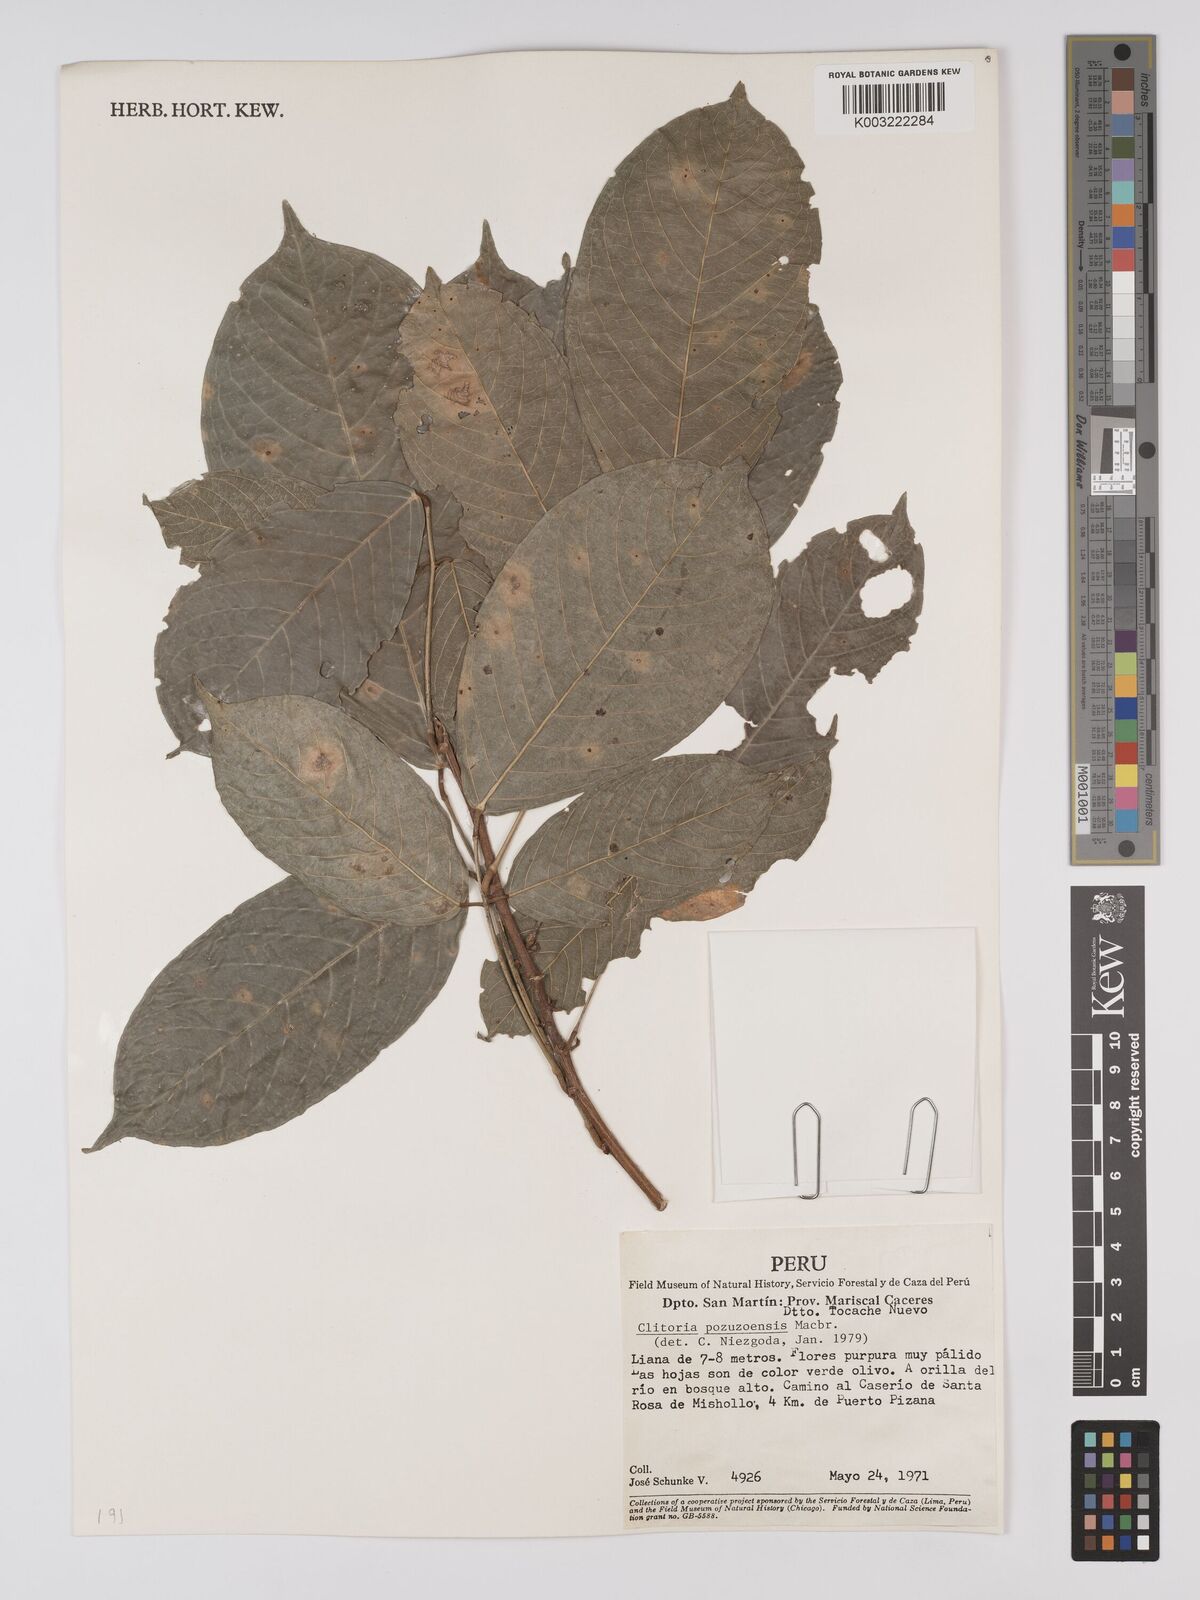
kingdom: Plantae
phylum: Tracheophyta
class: Magnoliopsida
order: Fabales
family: Fabaceae
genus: Clitoria
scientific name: Clitoria pozuzoensis
